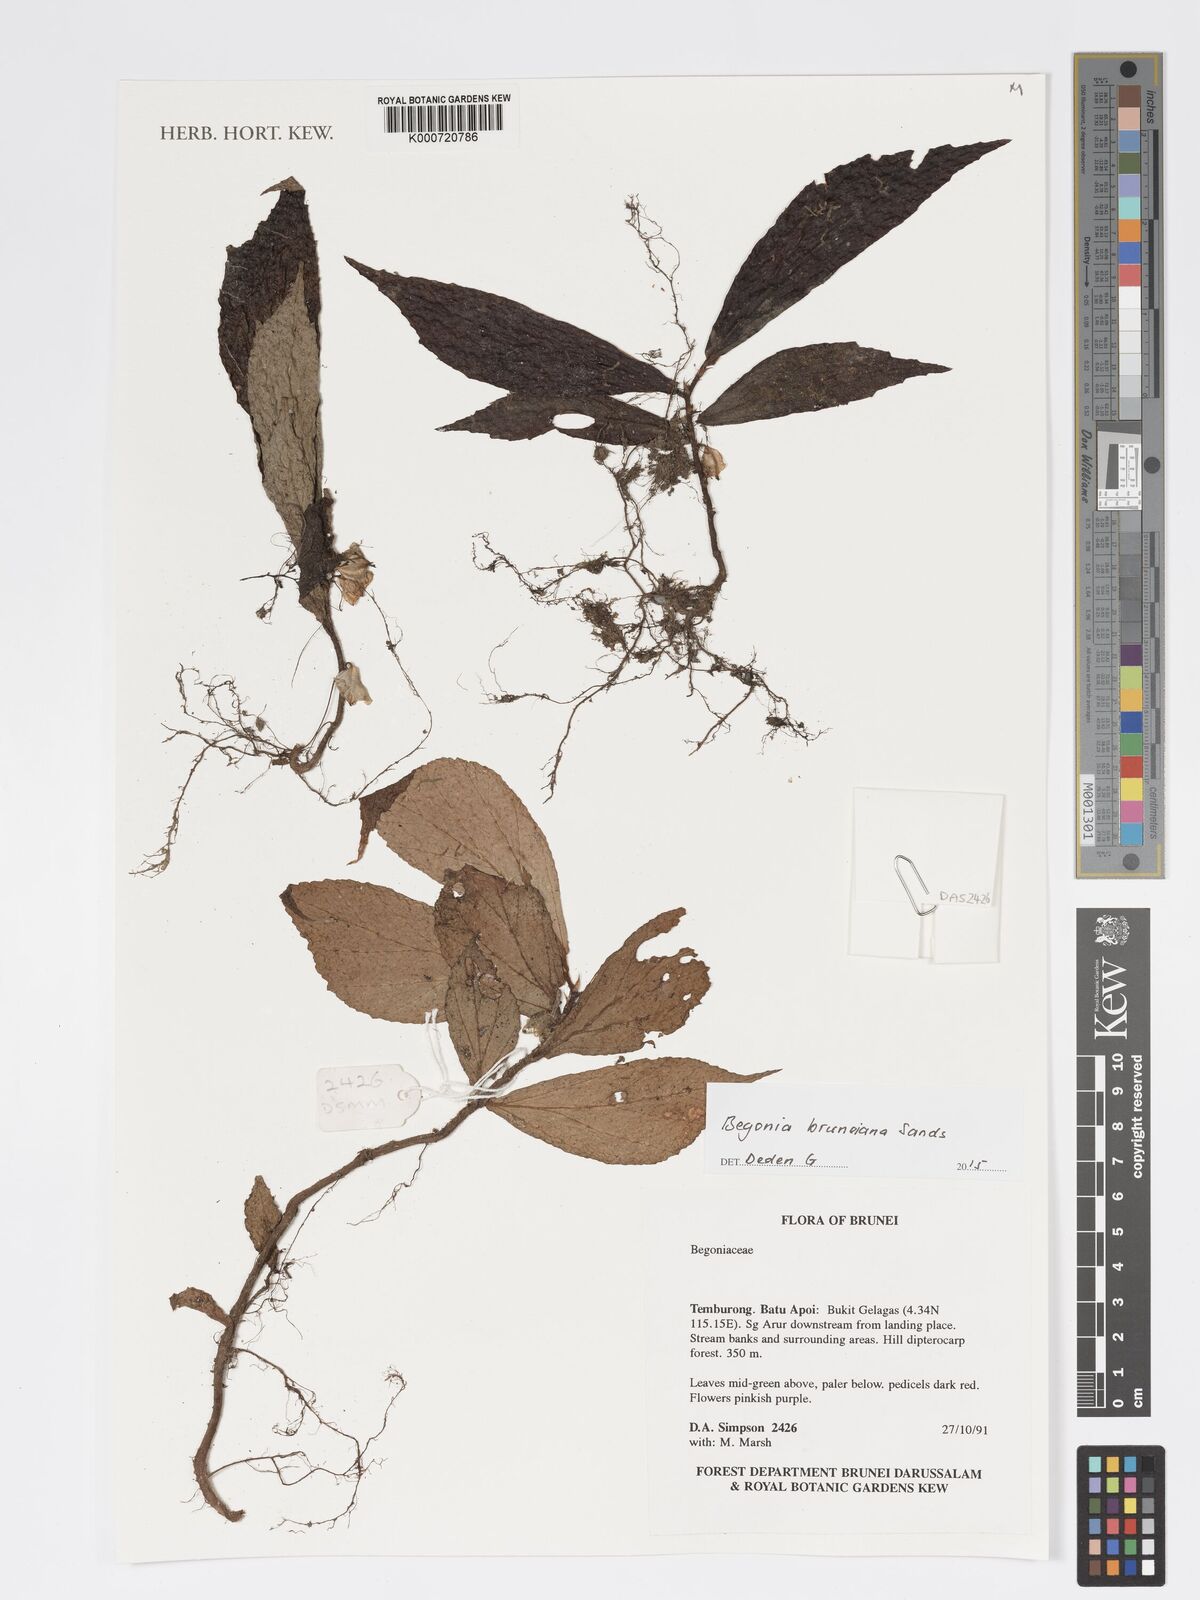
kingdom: Plantae
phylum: Tracheophyta
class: Magnoliopsida
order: Cucurbitales
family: Begoniaceae
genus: Begonia
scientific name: Begonia bruneiana
